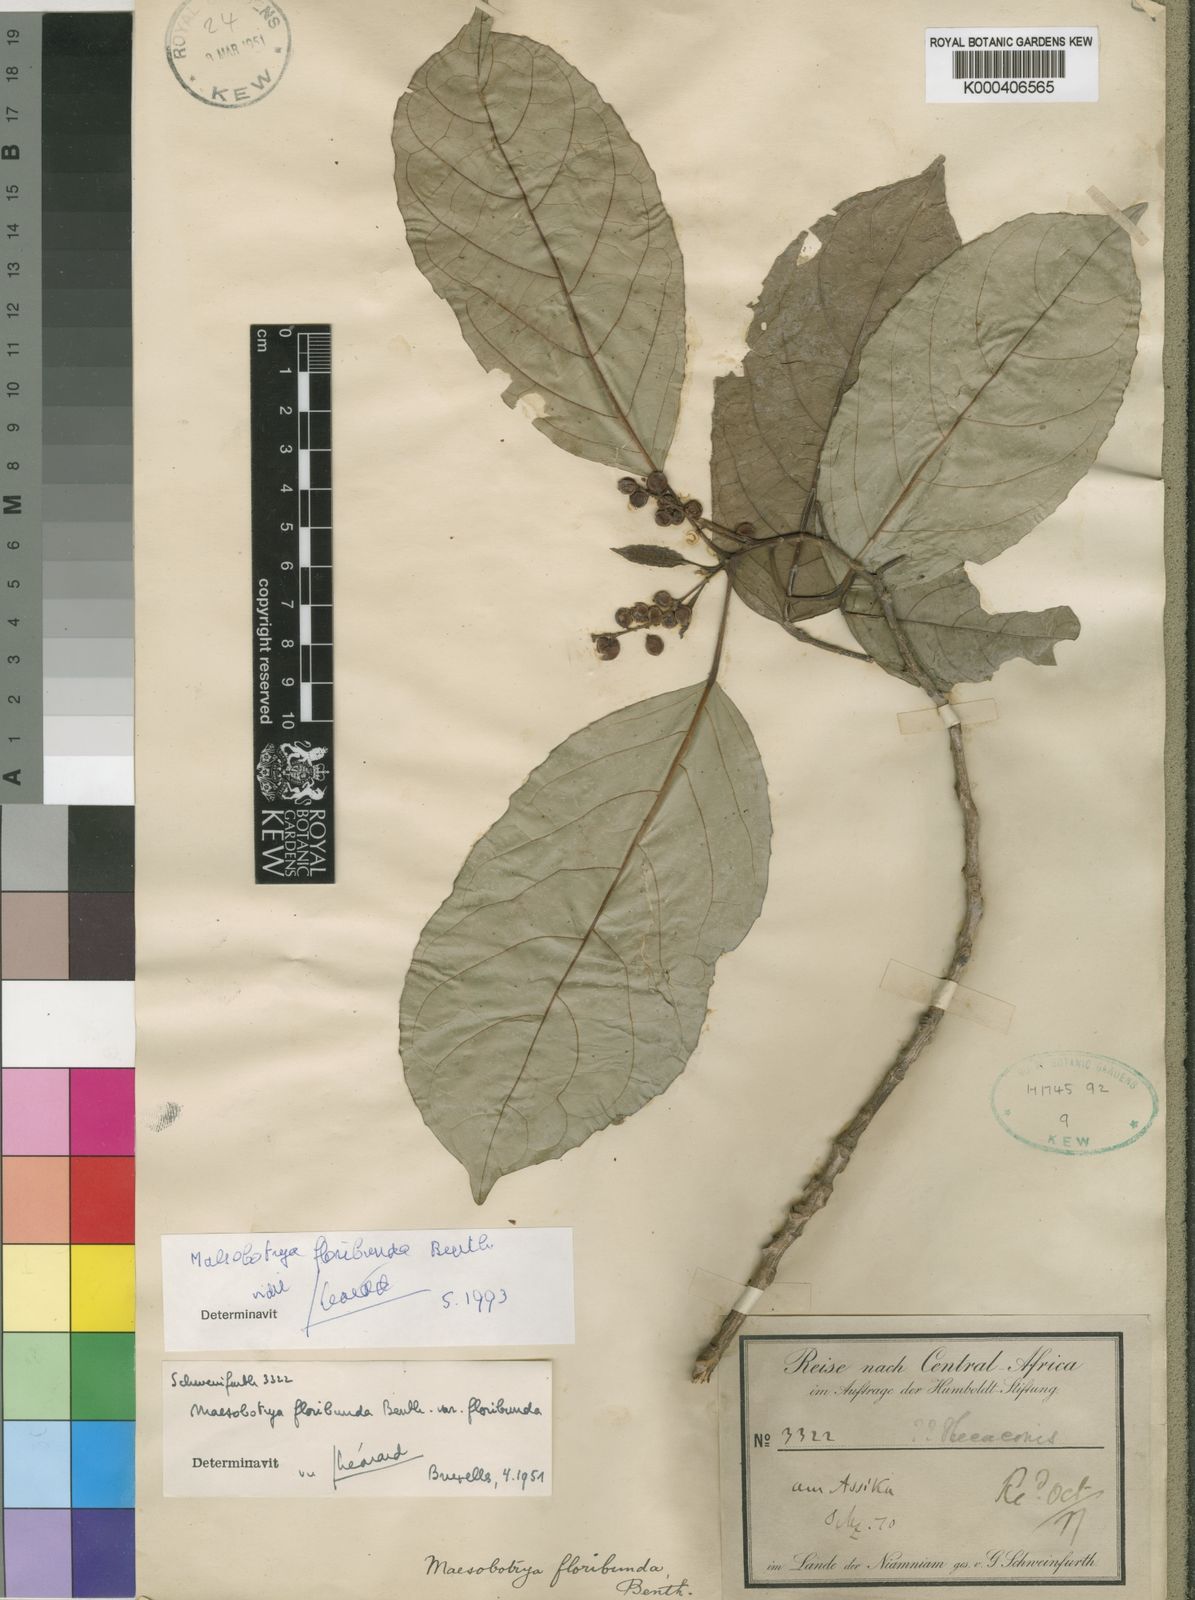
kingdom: Plantae
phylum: Tracheophyta
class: Magnoliopsida
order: Malpighiales
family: Phyllanthaceae
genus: Maesobotrya
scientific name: Maesobotrya floribunda
